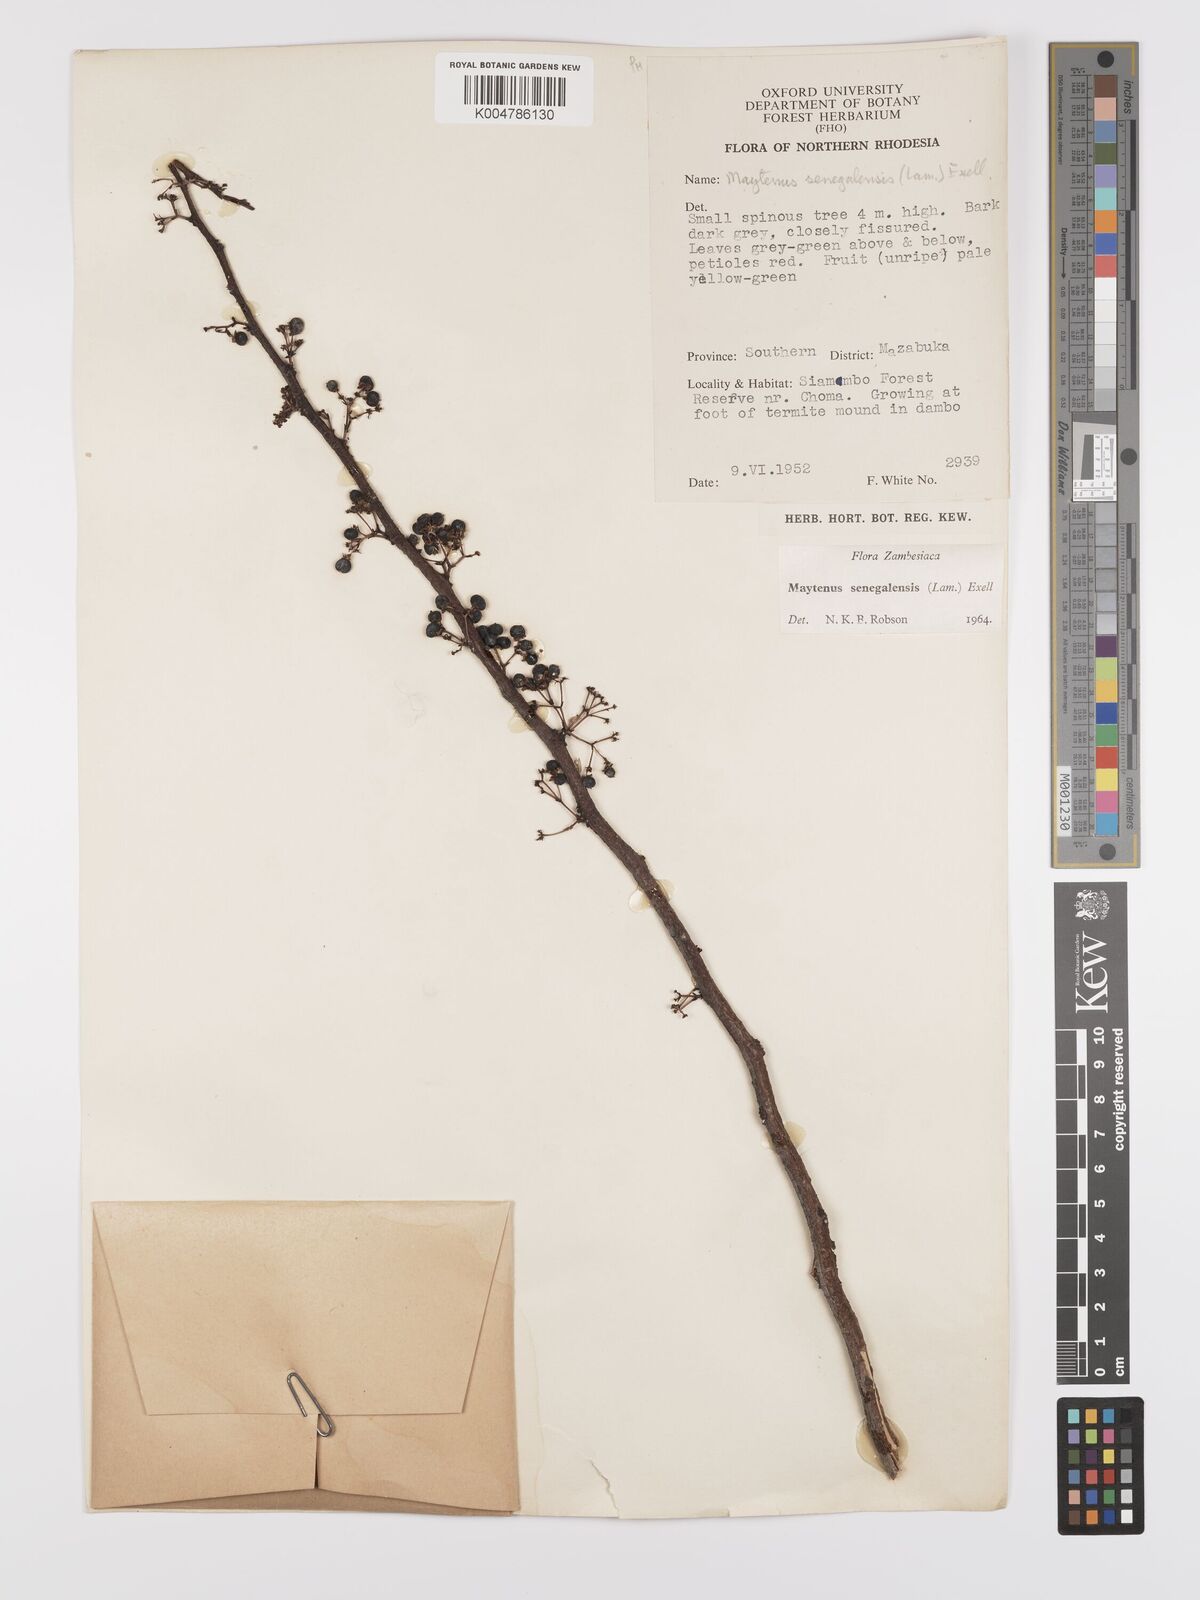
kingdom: Plantae
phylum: Tracheophyta
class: Magnoliopsida
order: Celastrales
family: Celastraceae
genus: Gymnosporia
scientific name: Gymnosporia senegalensis
